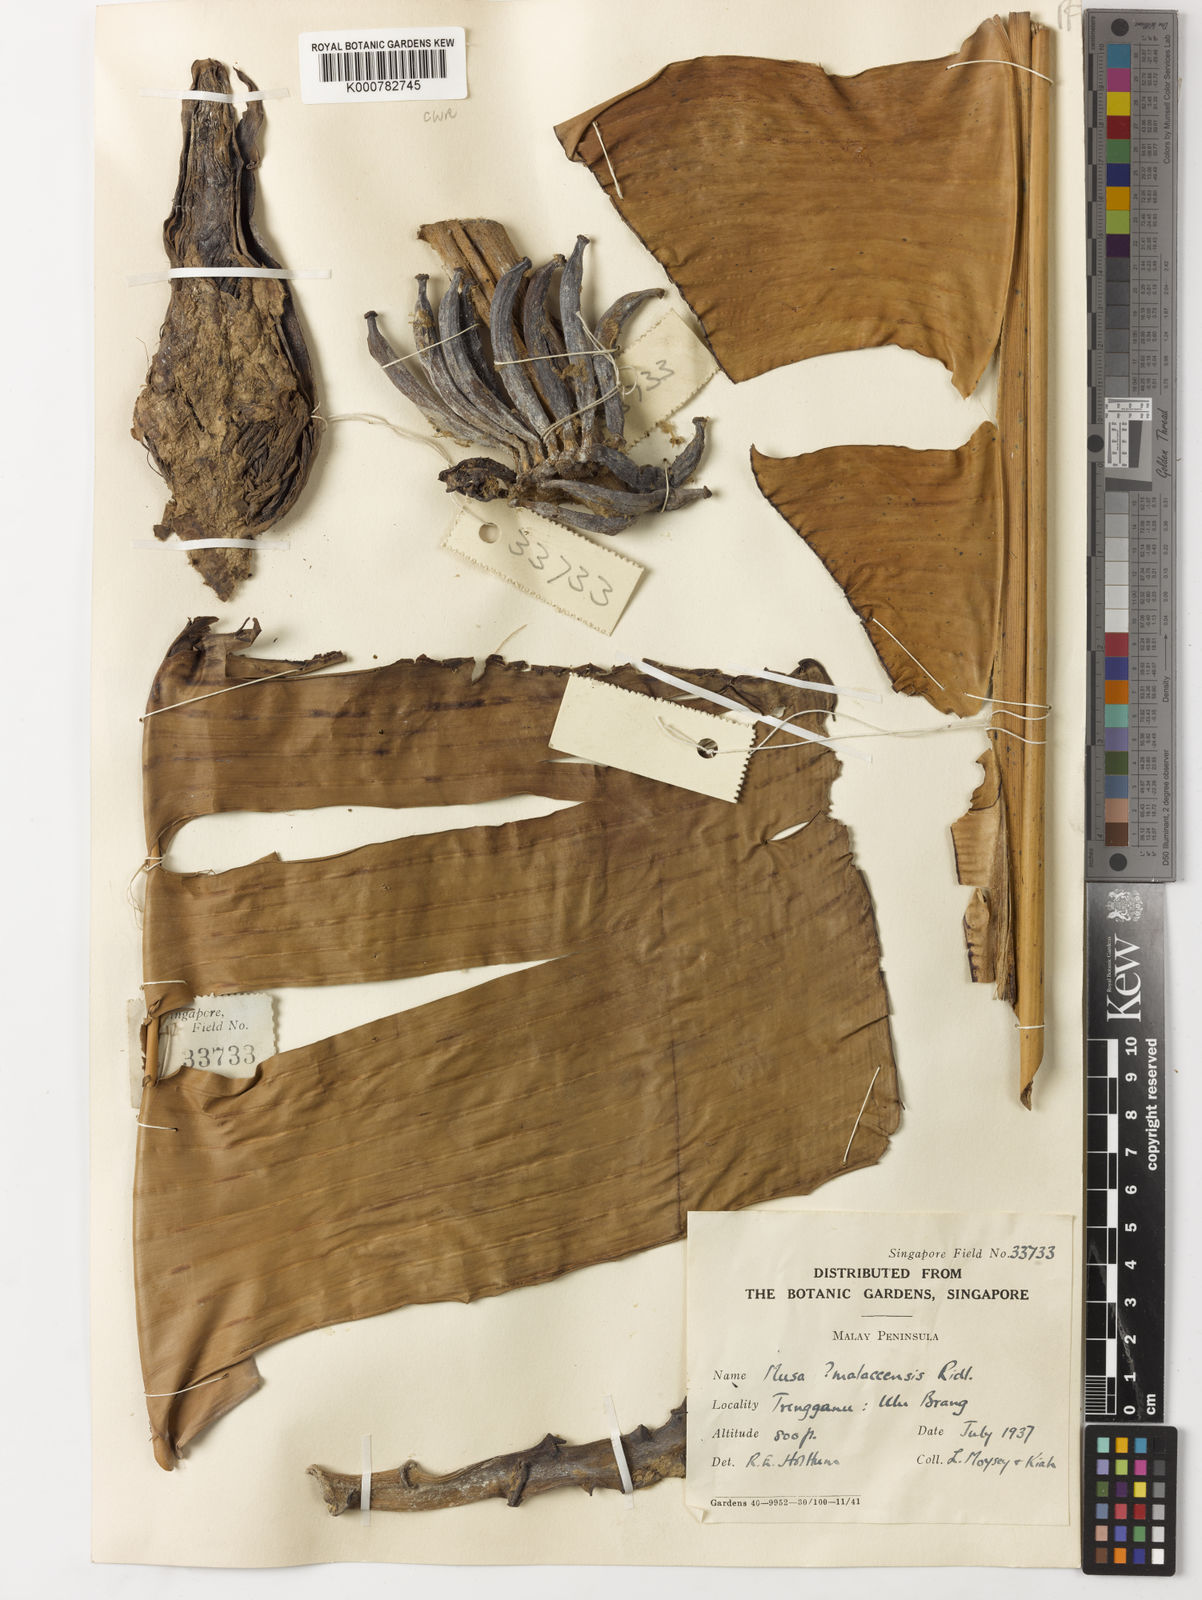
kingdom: Plantae
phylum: Tracheophyta
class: Liliopsida
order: Zingiberales
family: Musaceae
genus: Musa
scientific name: Musa acuminata
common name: Edible banana
